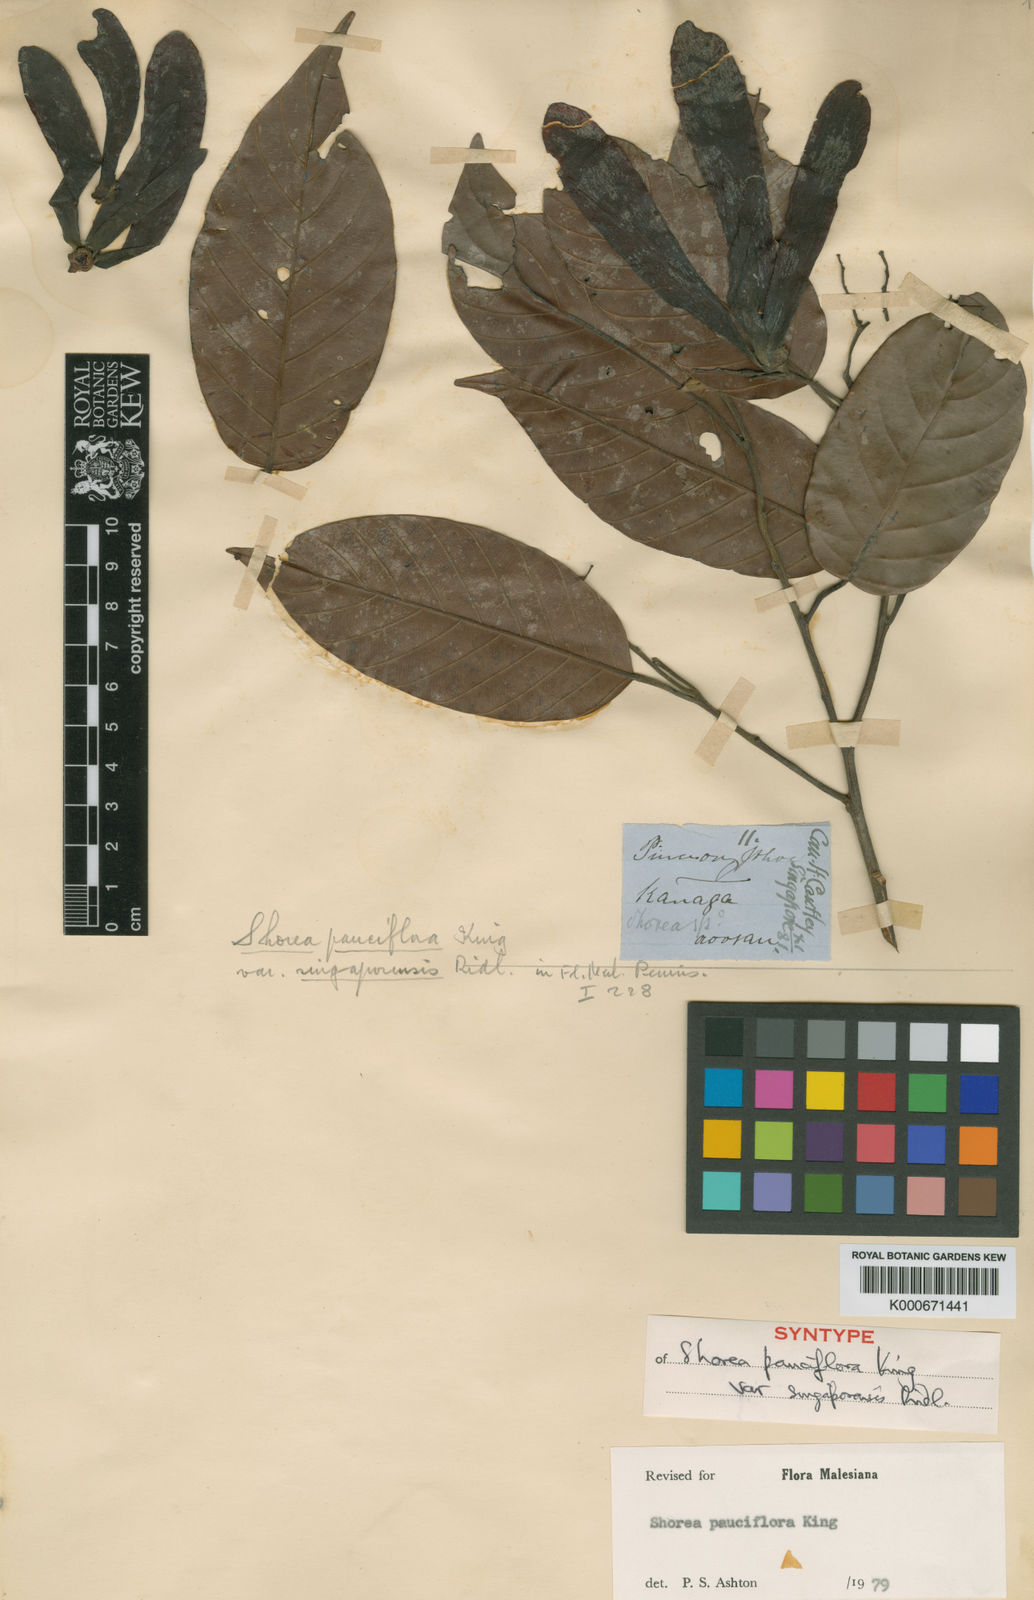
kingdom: Plantae
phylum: Tracheophyta
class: Magnoliopsida
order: Malvales
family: Dipterocarpaceae
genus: Shorea
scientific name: Shorea pauciflora
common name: Dark red meranti
